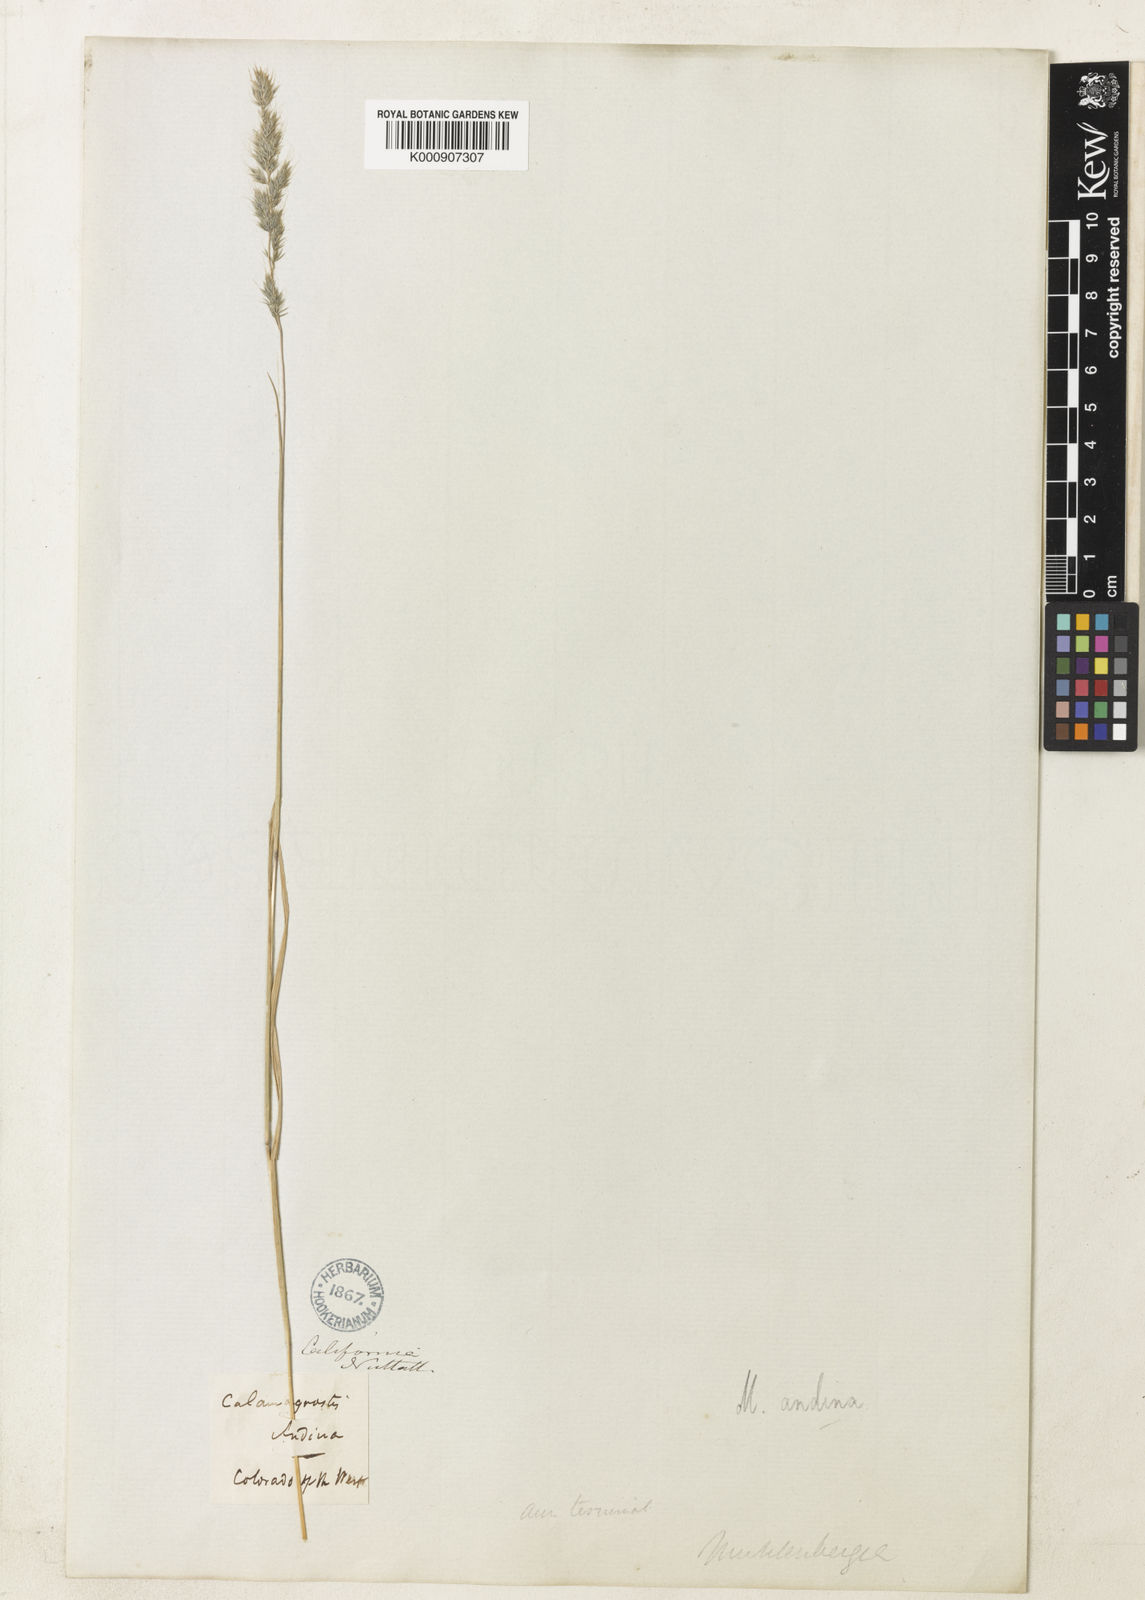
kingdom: Plantae
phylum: Tracheophyta
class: Liliopsida
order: Poales
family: Poaceae
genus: Muhlenbergia
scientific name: Muhlenbergia andina
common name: Foxtail muhly
